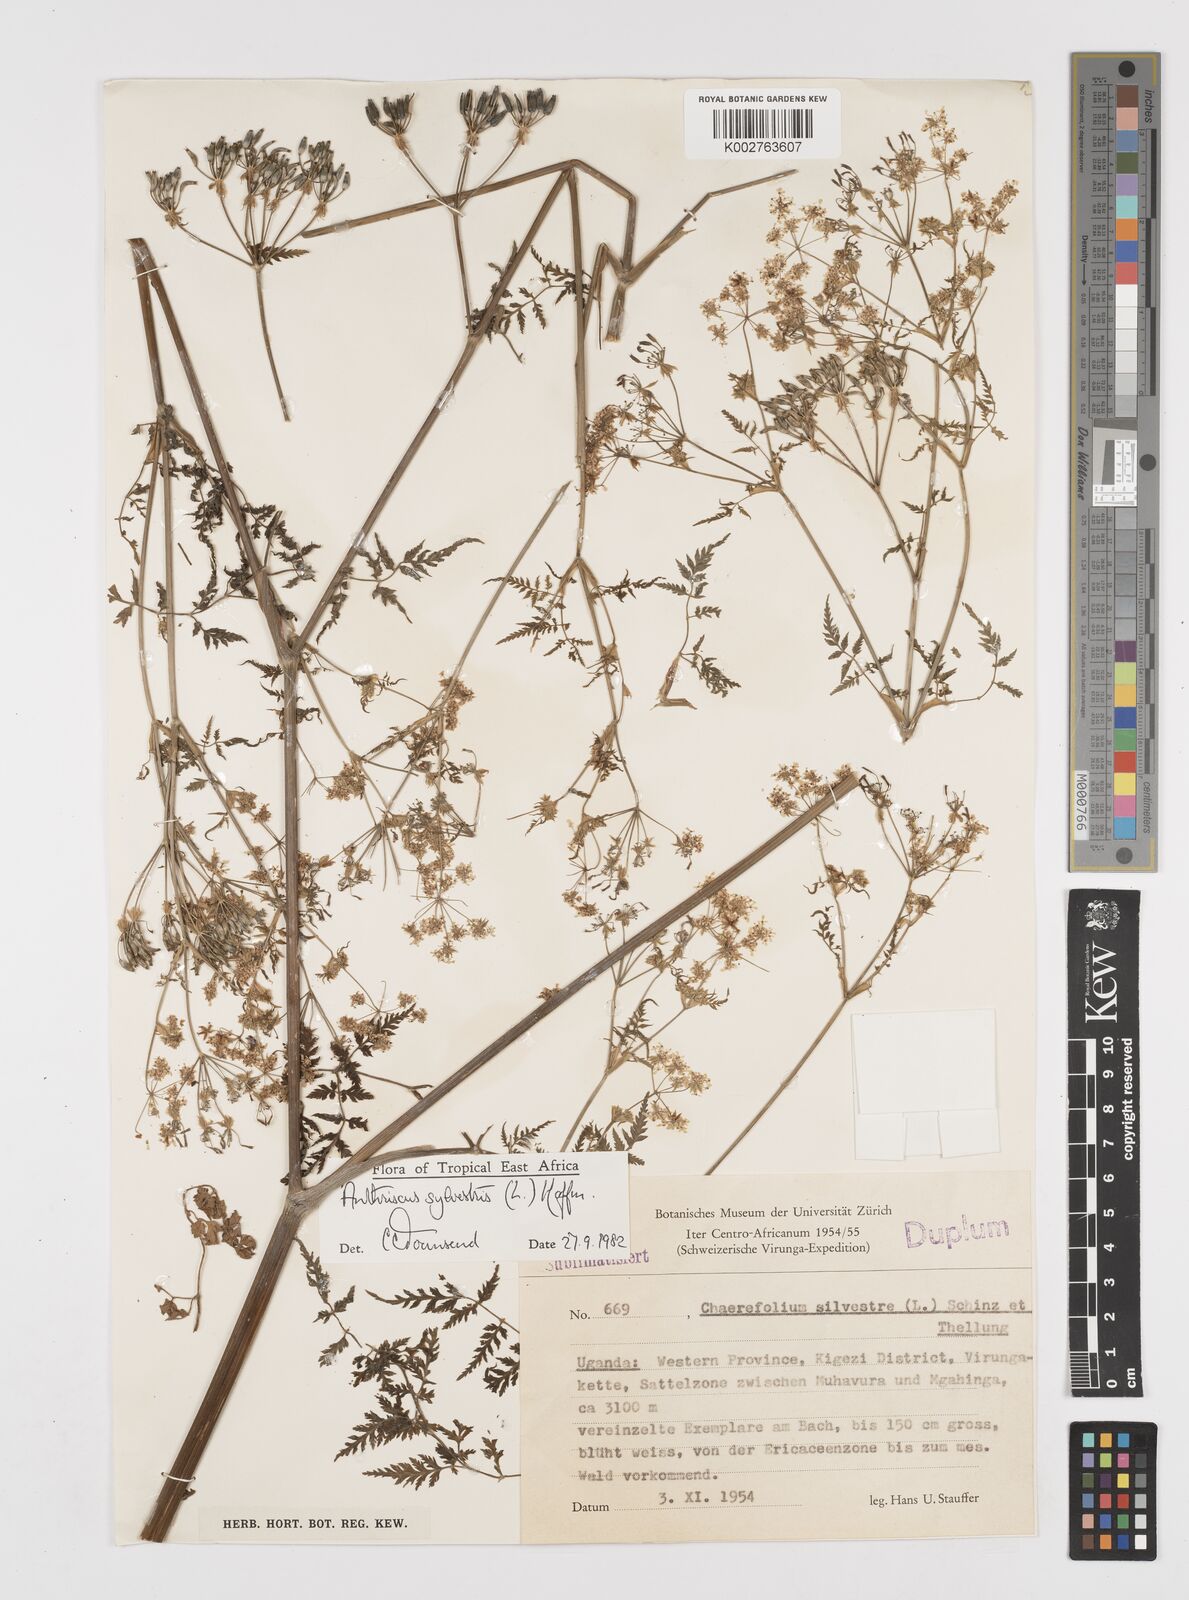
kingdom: Plantae
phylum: Tracheophyta
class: Magnoliopsida
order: Apiales
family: Apiaceae
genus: Anthriscus
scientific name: Anthriscus sylvestris
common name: Cow parsley
